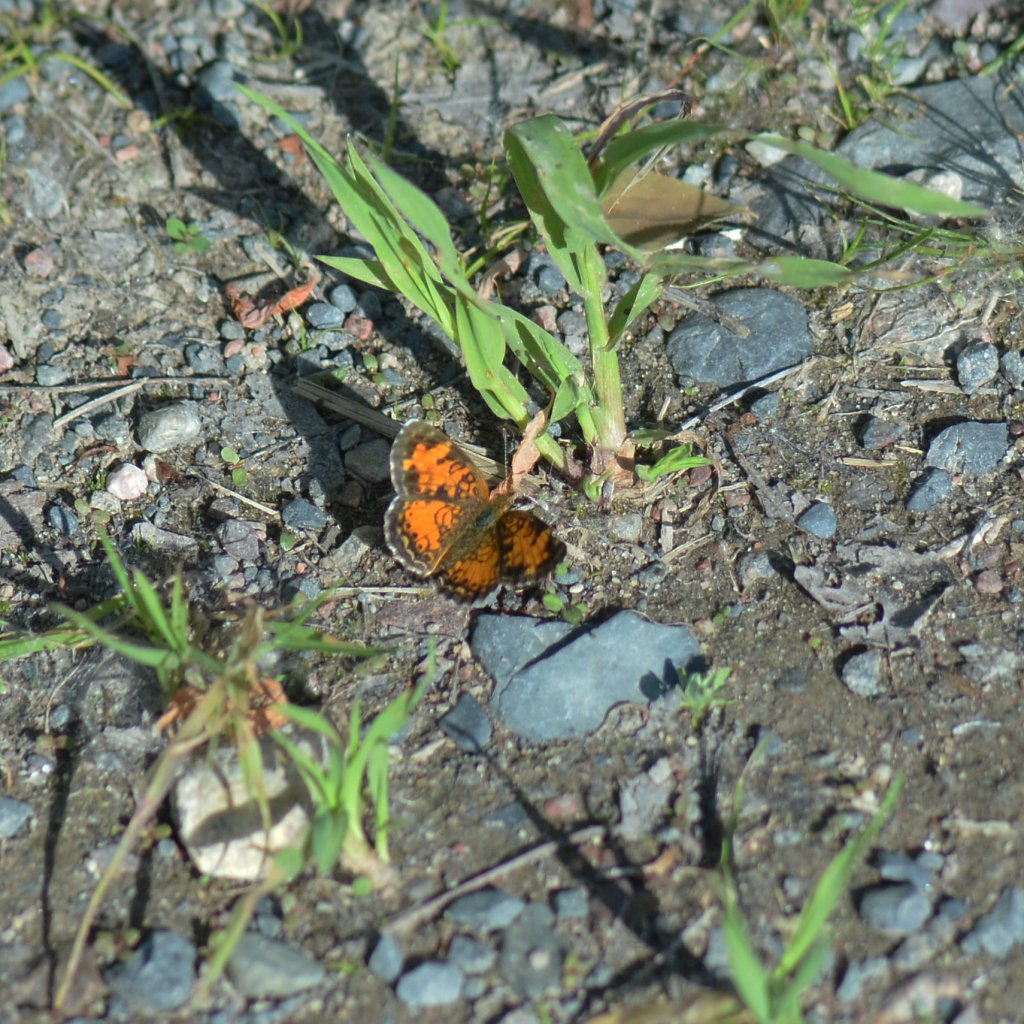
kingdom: Animalia
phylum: Arthropoda
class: Insecta
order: Lepidoptera
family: Nymphalidae
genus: Phyciodes
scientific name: Phyciodes tharos
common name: Northern Crescent
